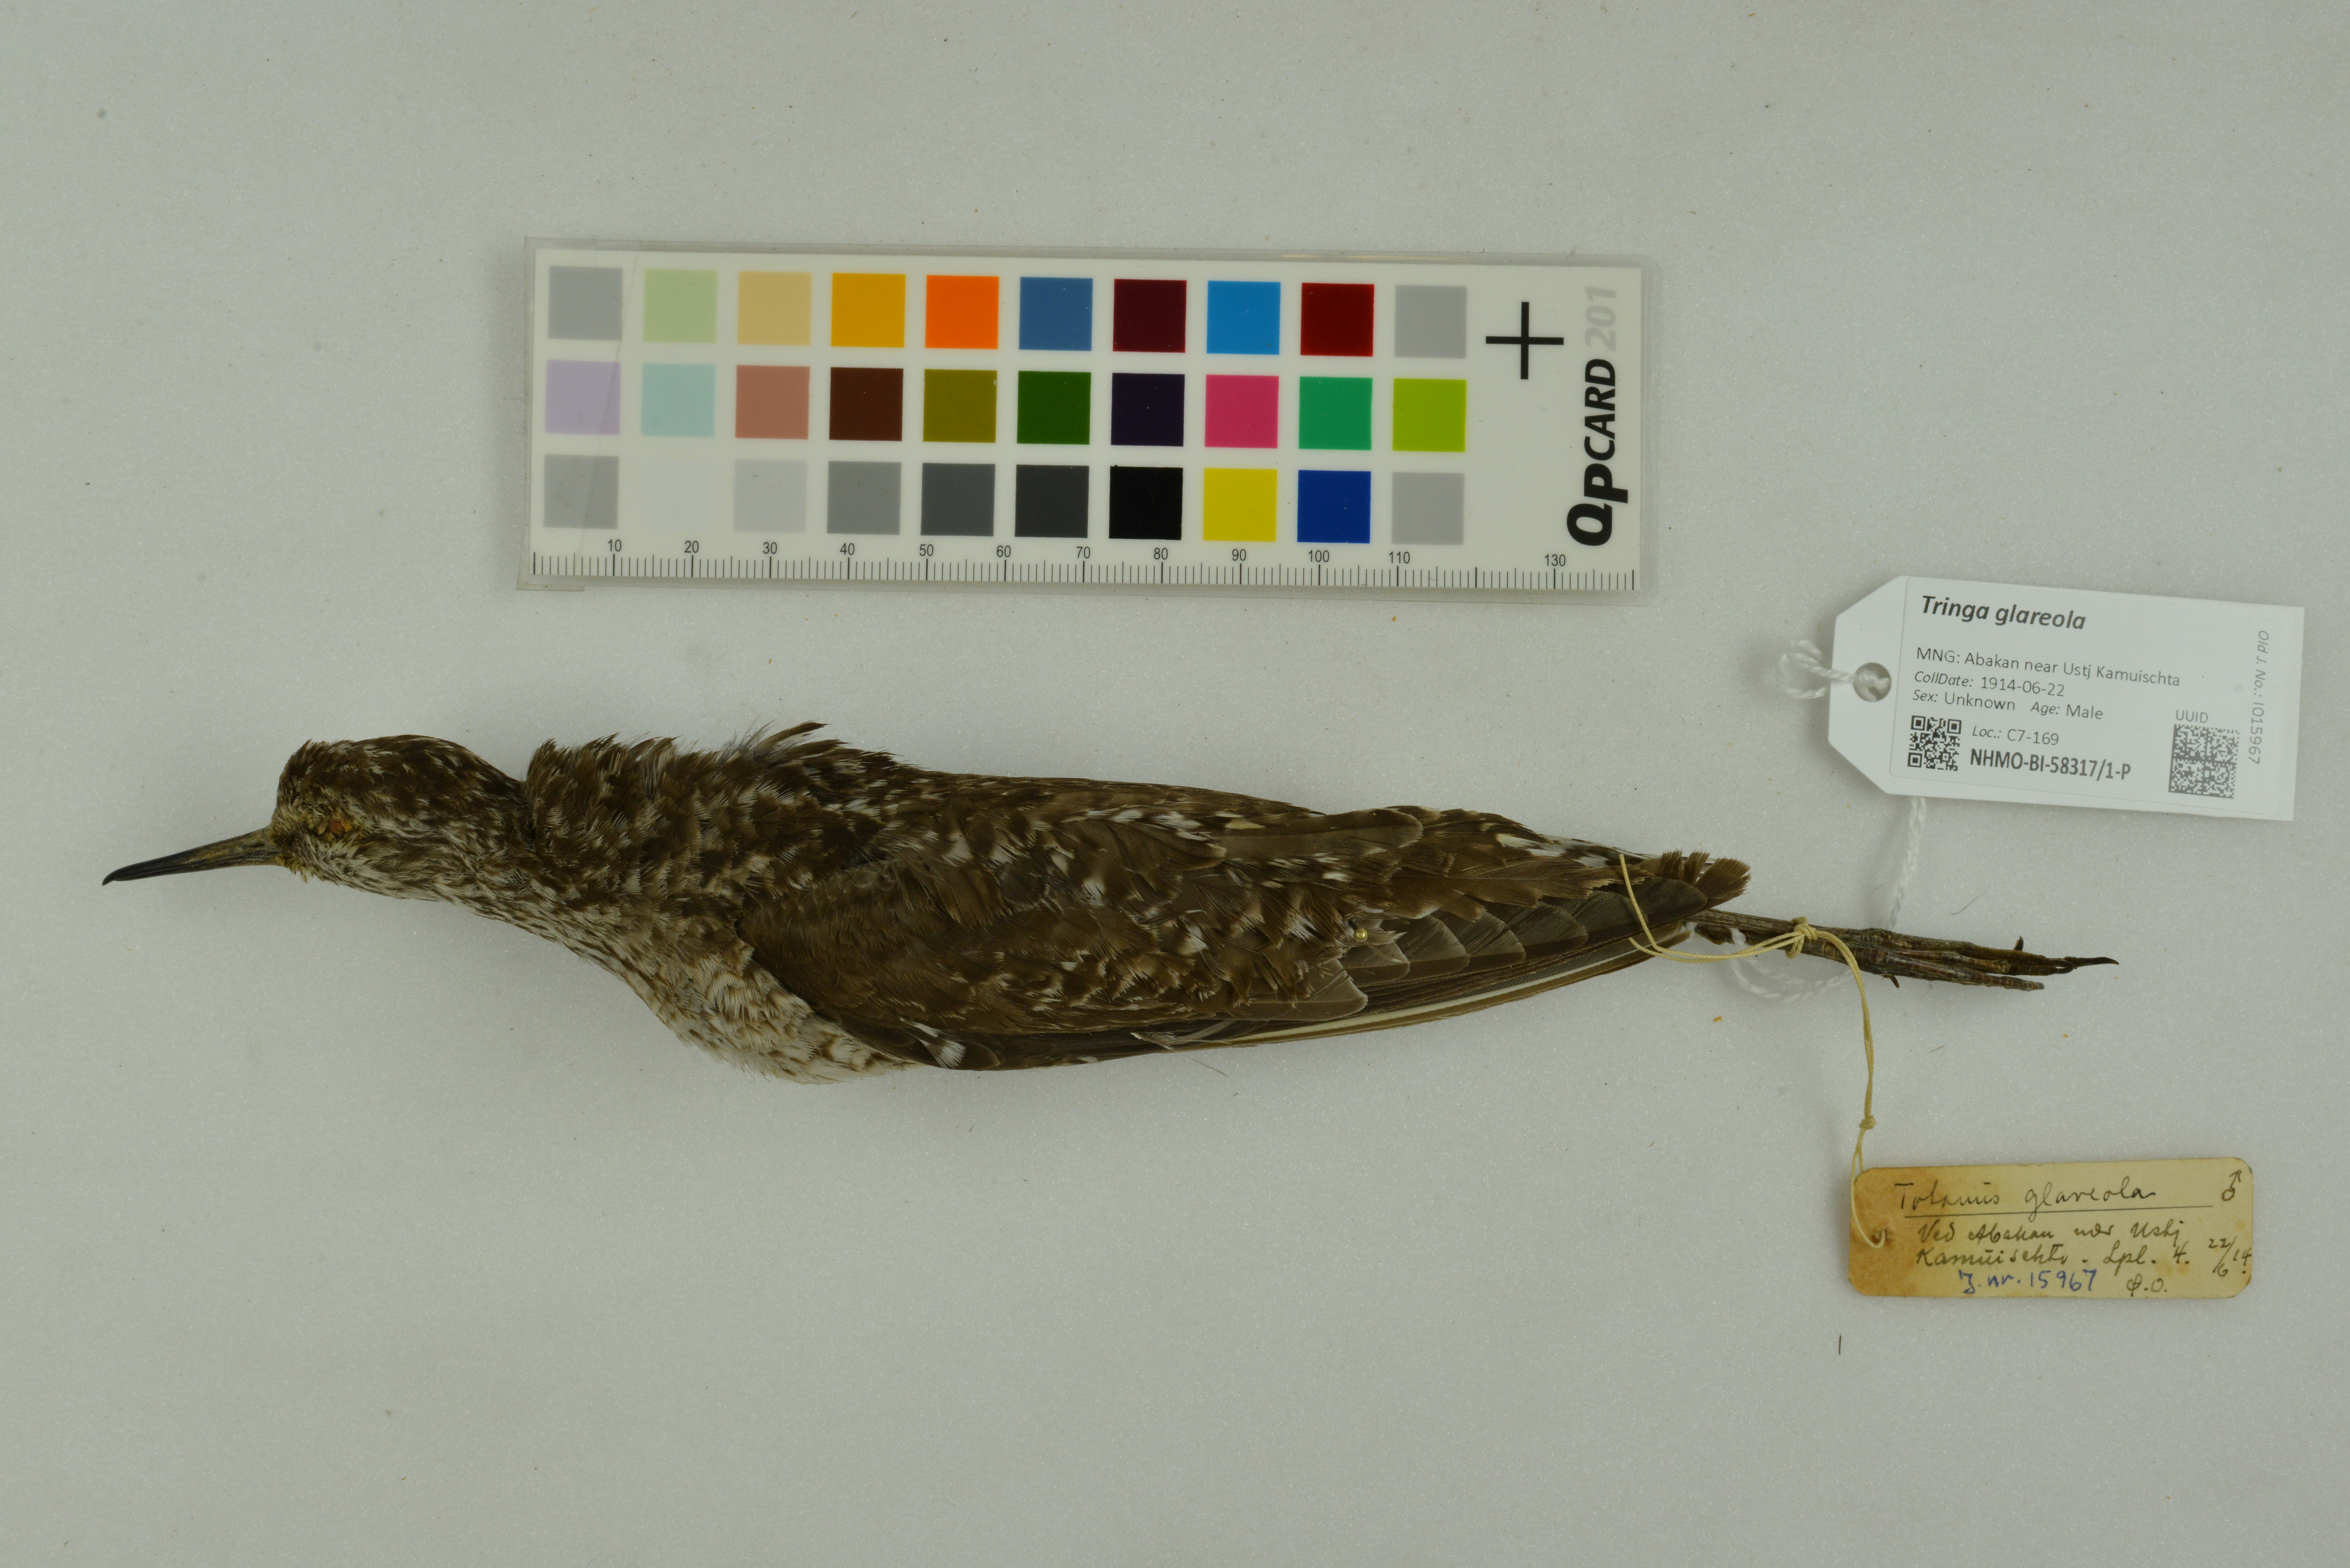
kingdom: Animalia
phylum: Chordata
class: Aves
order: Charadriiformes
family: Scolopacidae
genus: Tringa
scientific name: Tringa glareola
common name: Wood sandpiper
